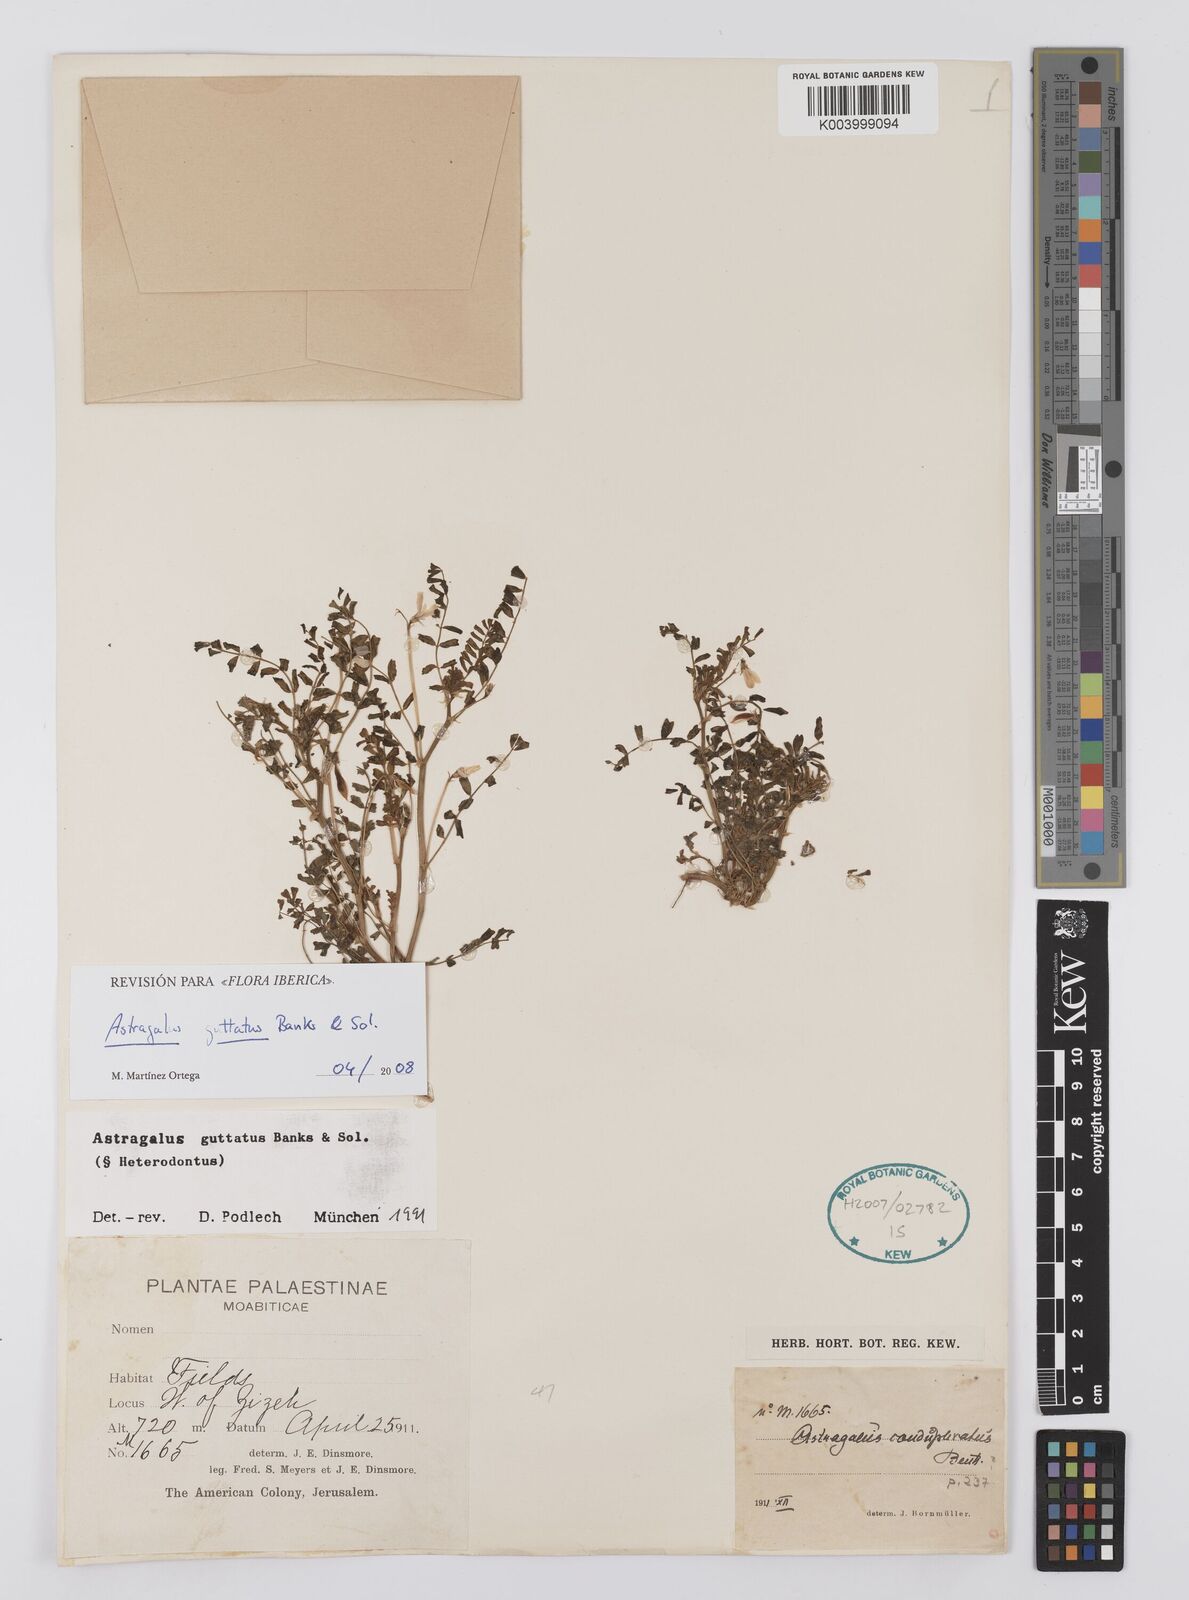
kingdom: Plantae
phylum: Tracheophyta
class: Magnoliopsida
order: Fabales
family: Fabaceae
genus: Astragalus
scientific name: Astragalus guttatus
